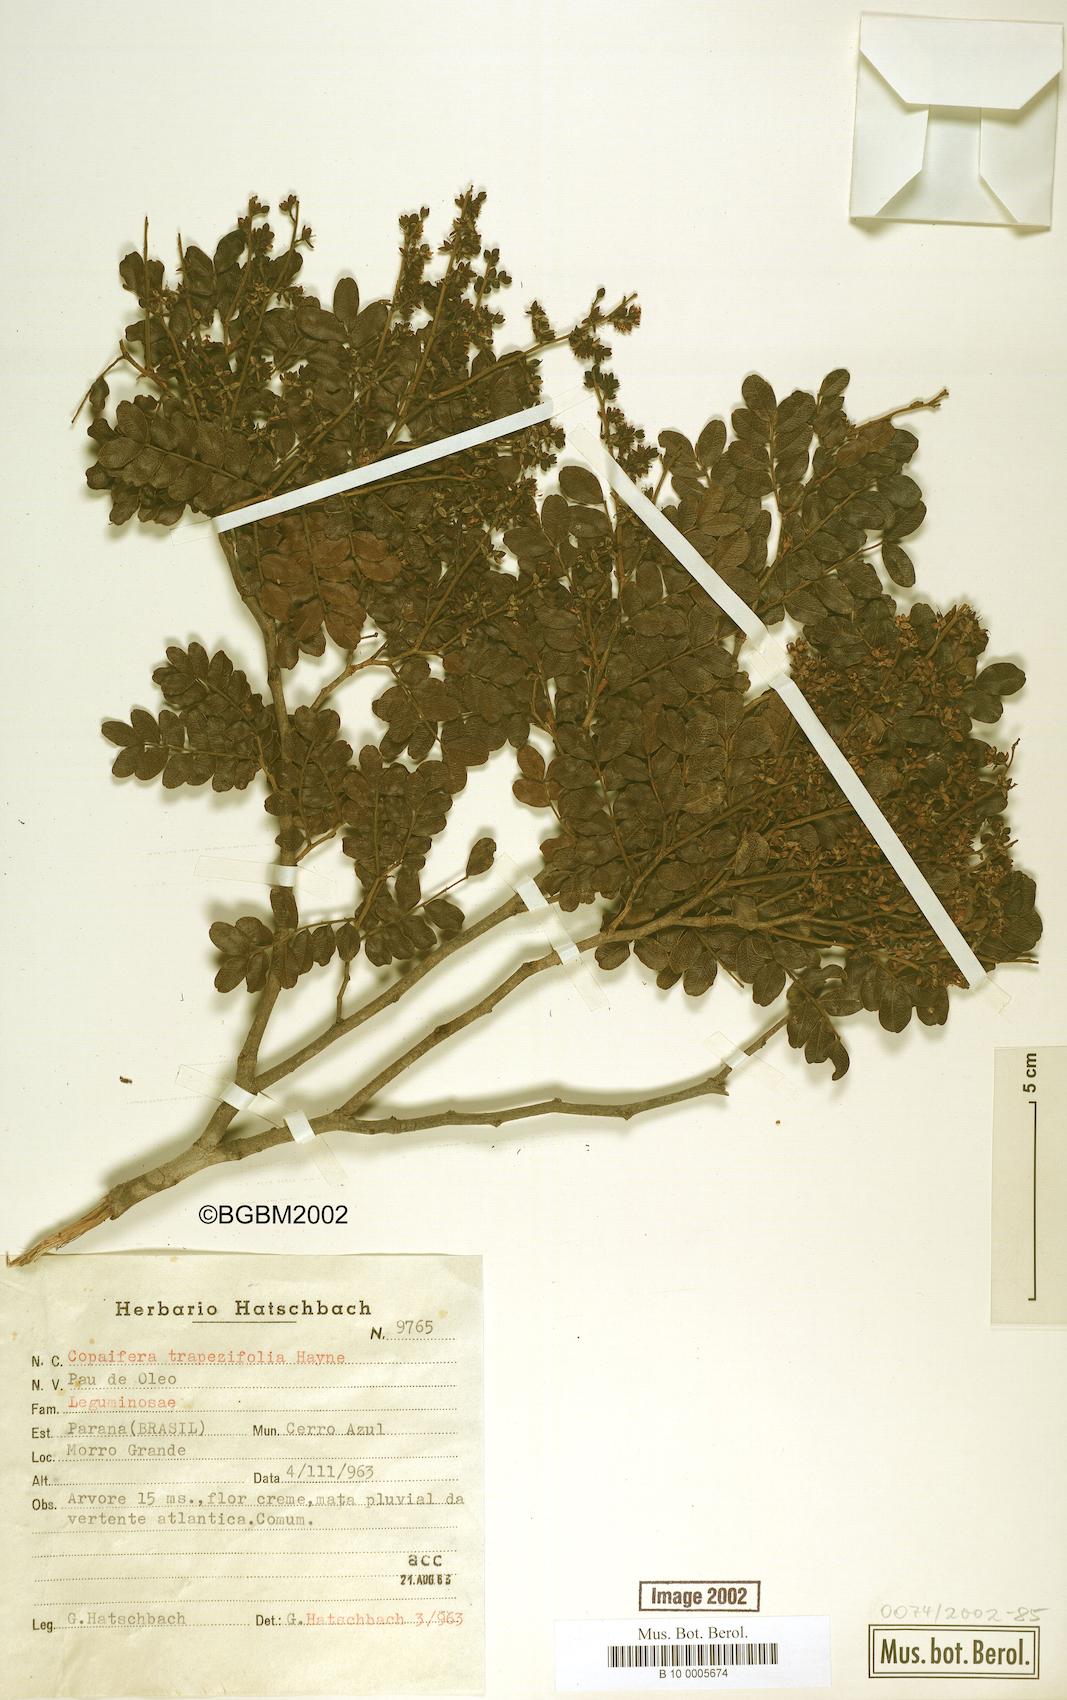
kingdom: Plantae
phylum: Tracheophyta
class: Magnoliopsida
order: Fabales
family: Fabaceae
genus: Copaifera
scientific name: Copaifera trapezifolia
